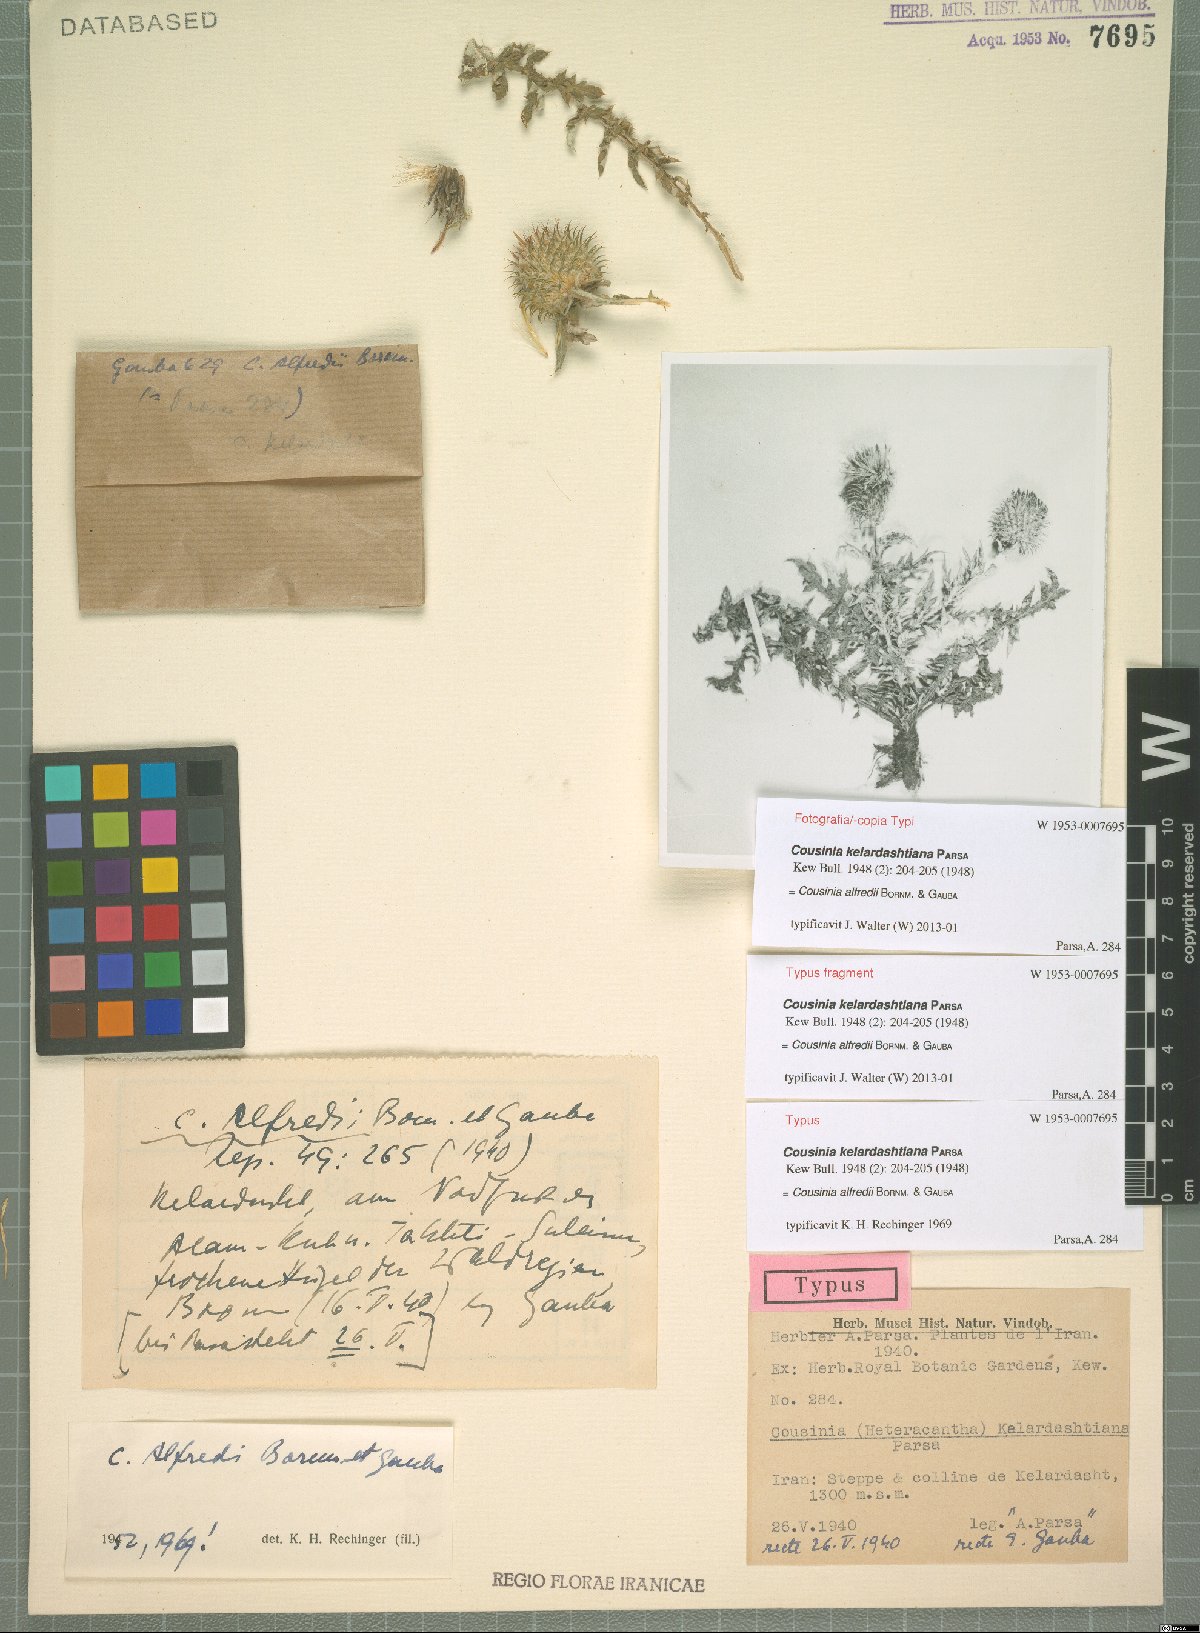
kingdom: Plantae
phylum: Tracheophyta
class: Magnoliopsida
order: Asterales
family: Asteraceae
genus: Cousinia
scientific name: Cousinia alfredii
